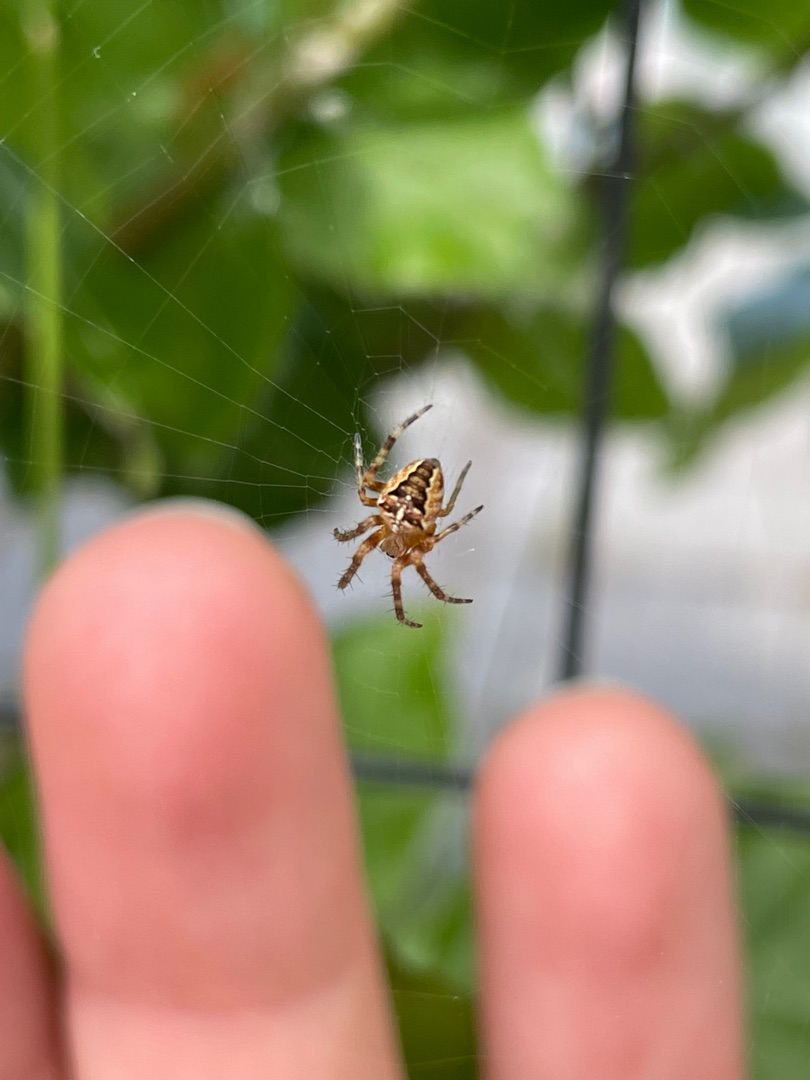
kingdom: Animalia
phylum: Arthropoda
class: Arachnida
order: Araneae
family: Araneidae
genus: Araneus
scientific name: Araneus diadematus
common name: Korsedderkop
